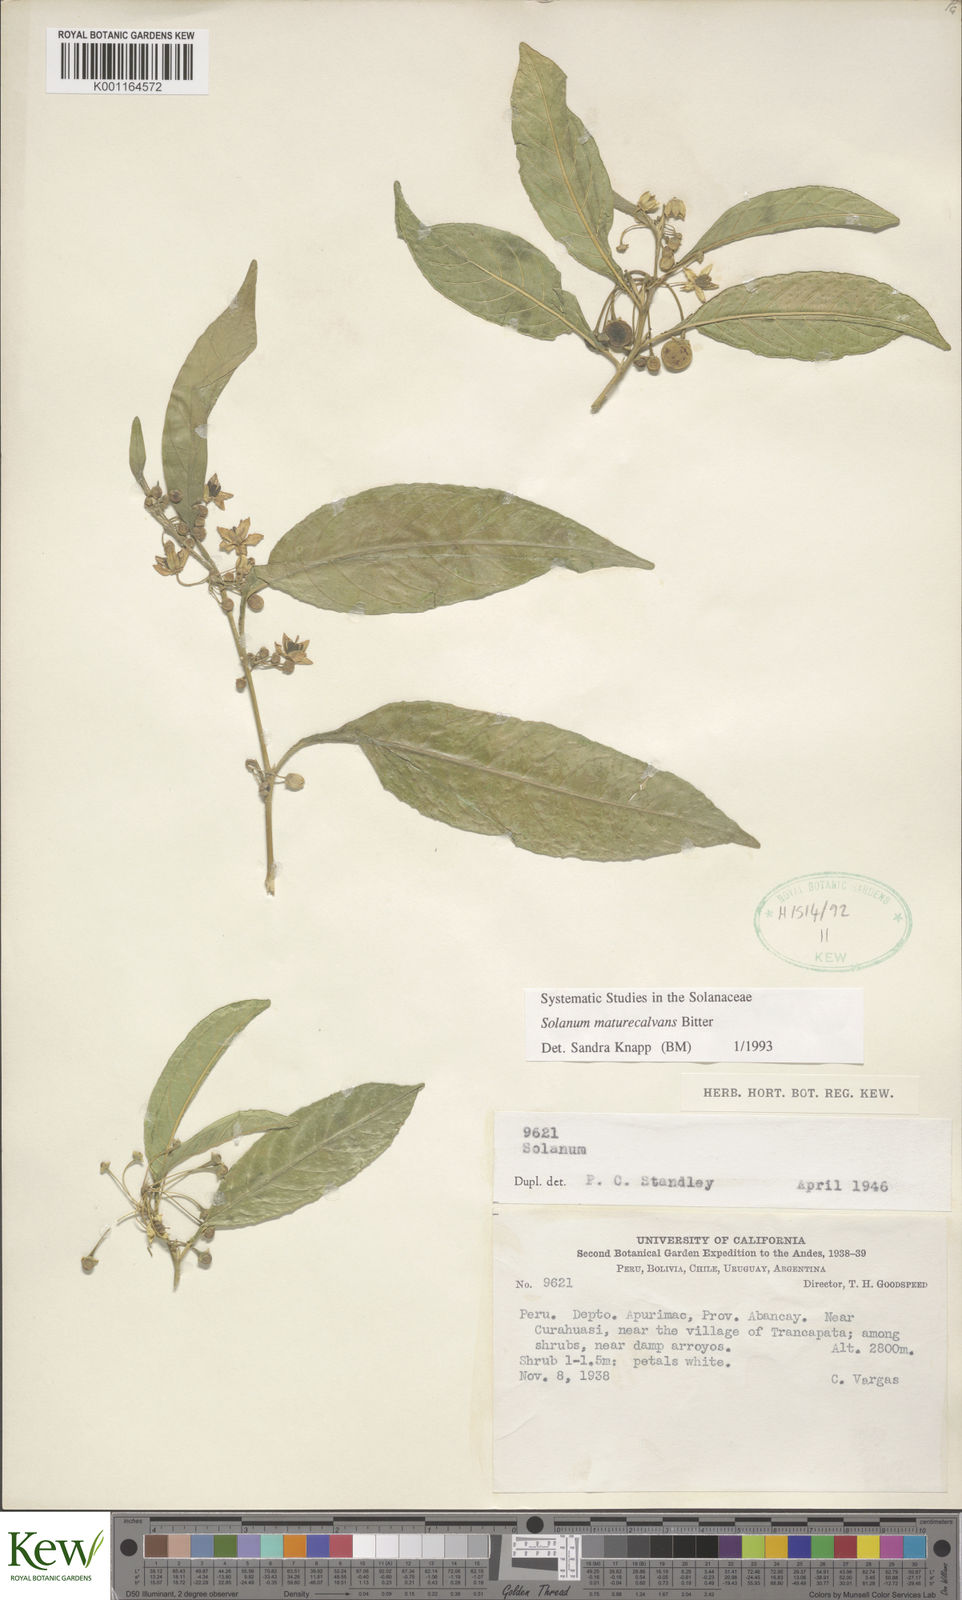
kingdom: Plantae
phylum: Tracheophyta
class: Magnoliopsida
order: Solanales
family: Solanaceae
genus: Solanum
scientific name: Solanum maturecalvans
